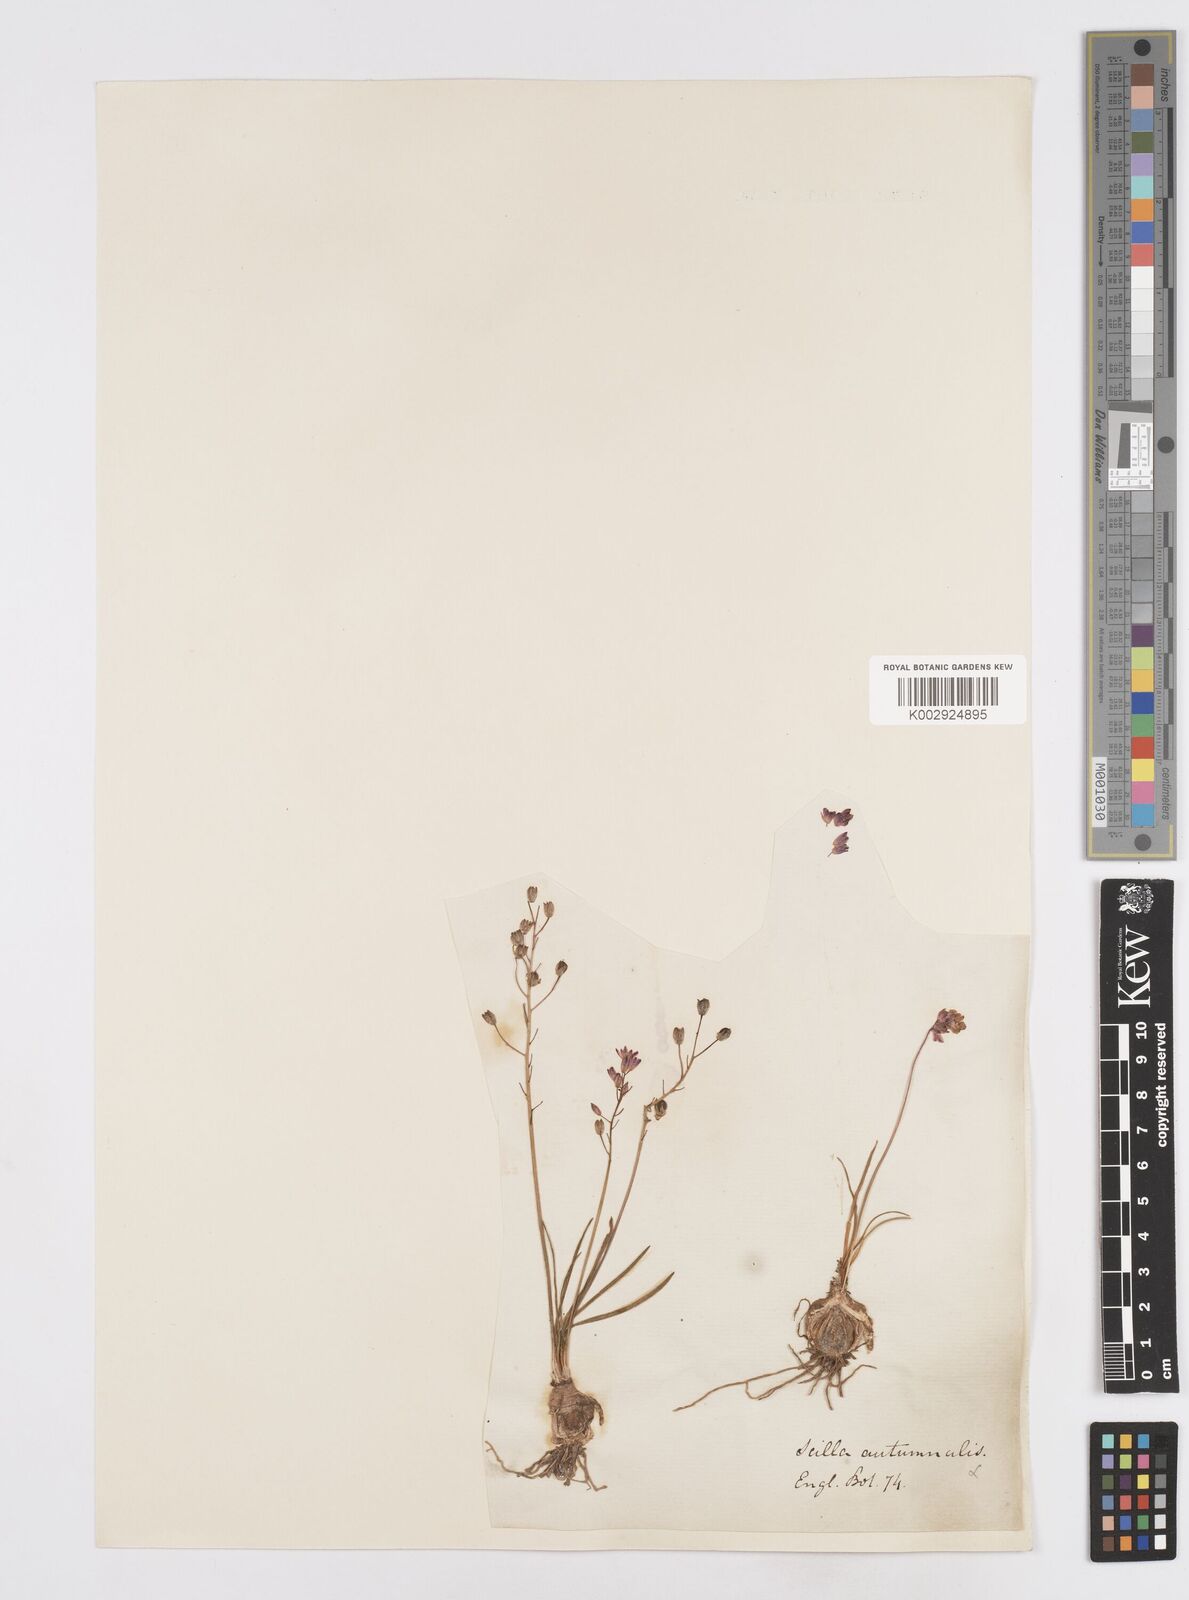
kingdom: Plantae
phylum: Tracheophyta
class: Liliopsida
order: Asparagales
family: Asparagaceae
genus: Prospero
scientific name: Prospero autumnale
